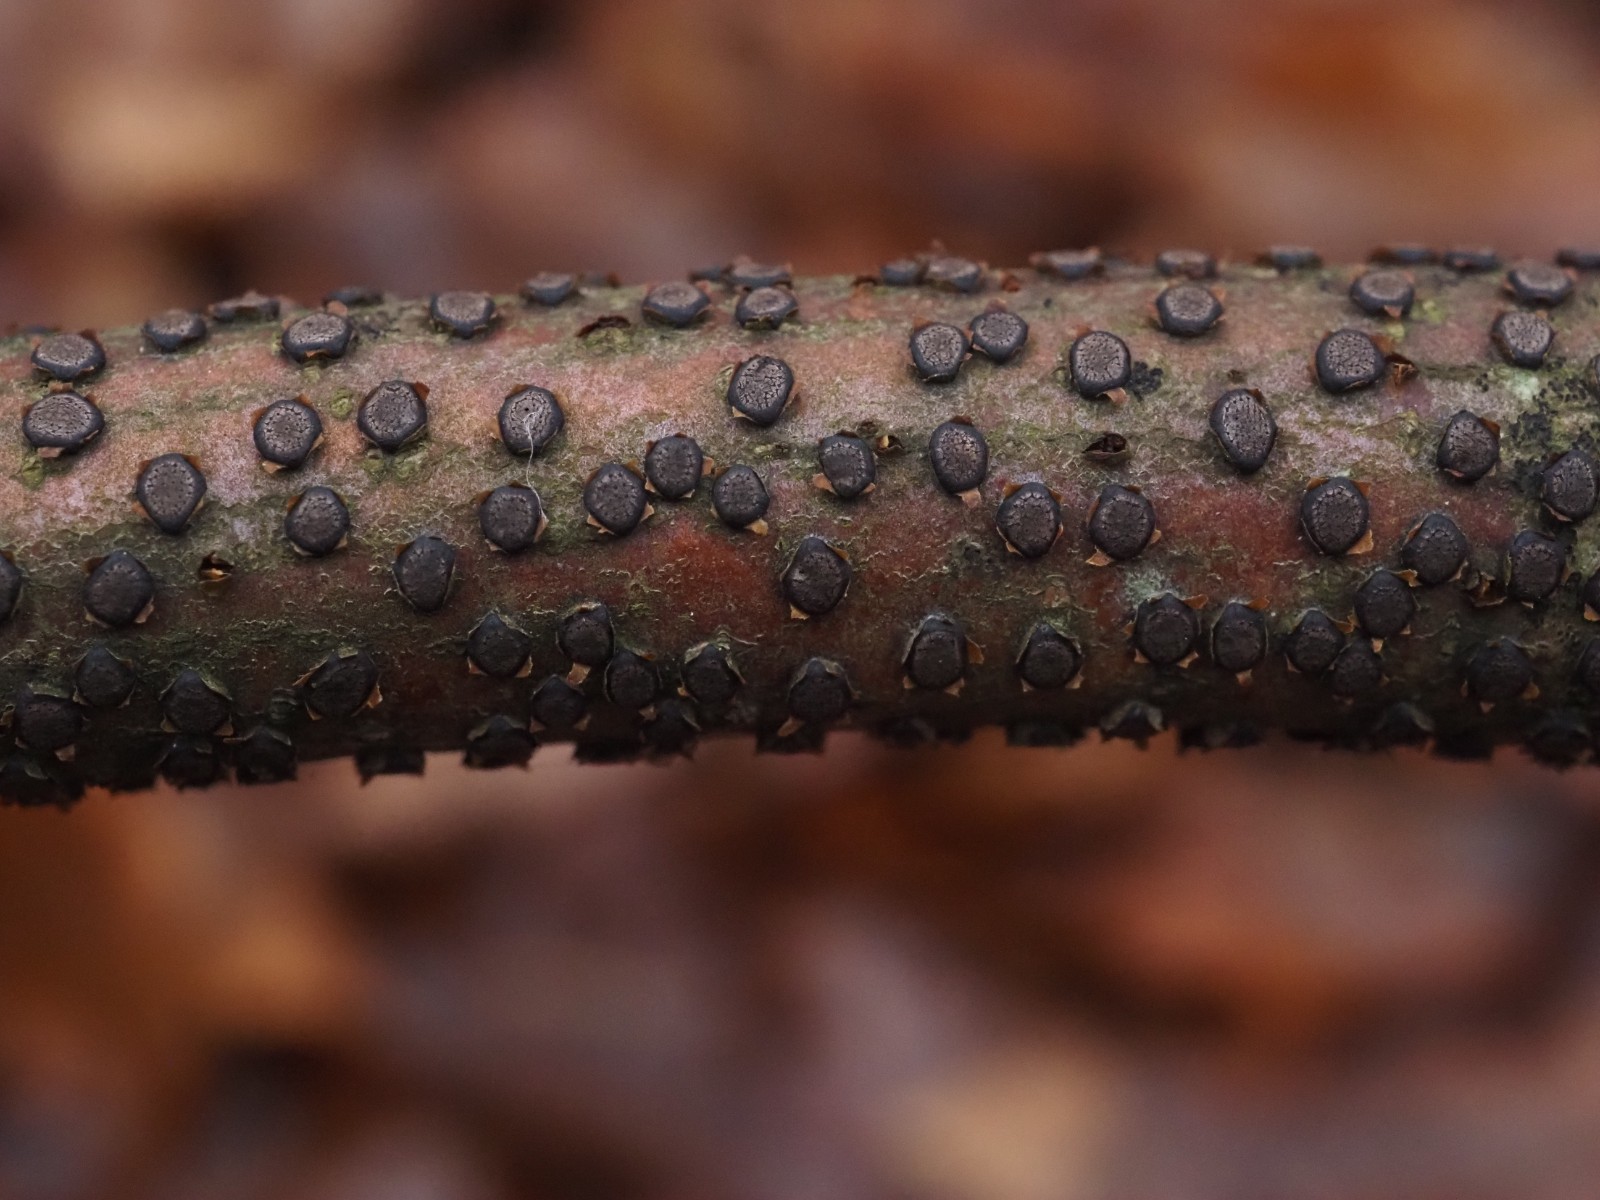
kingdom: Fungi
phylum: Ascomycota
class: Sordariomycetes
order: Xylariales
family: Diatrypaceae
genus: Diatrype
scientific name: Diatrype disciformis
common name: kant-kulskorpe
